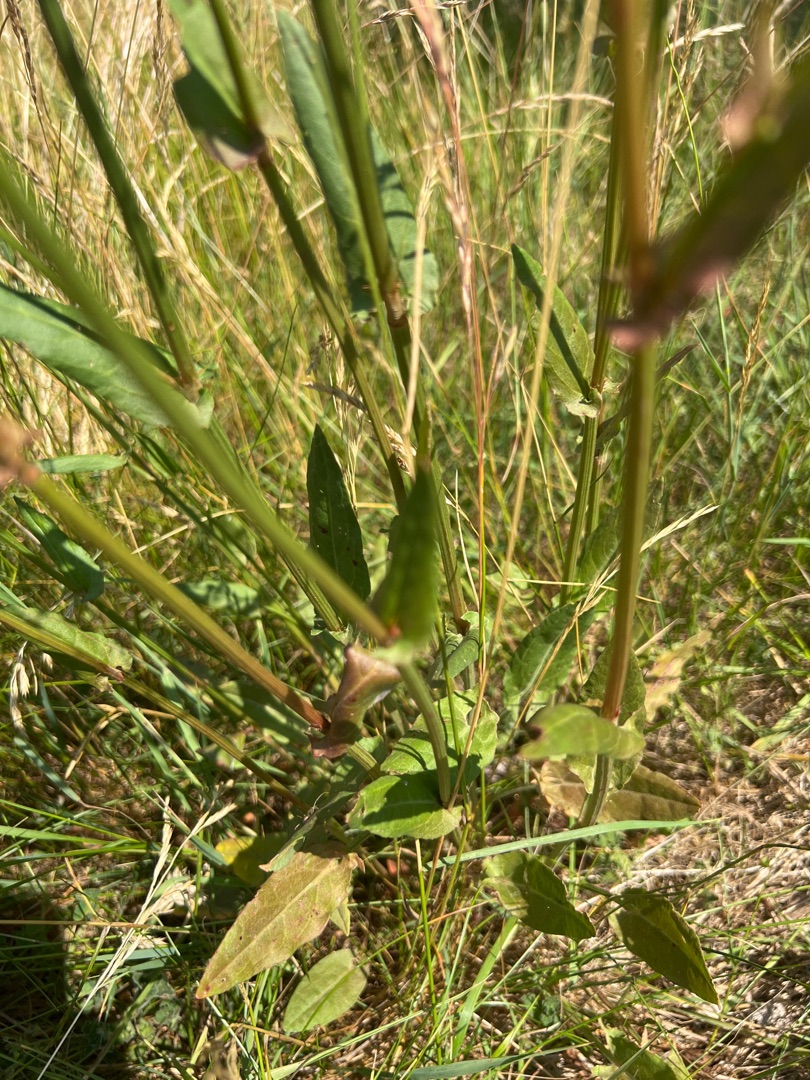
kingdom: Plantae
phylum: Tracheophyta
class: Magnoliopsida
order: Caryophyllales
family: Polygonaceae
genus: Rumex
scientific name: Rumex acetosa
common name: Almindelig syre
